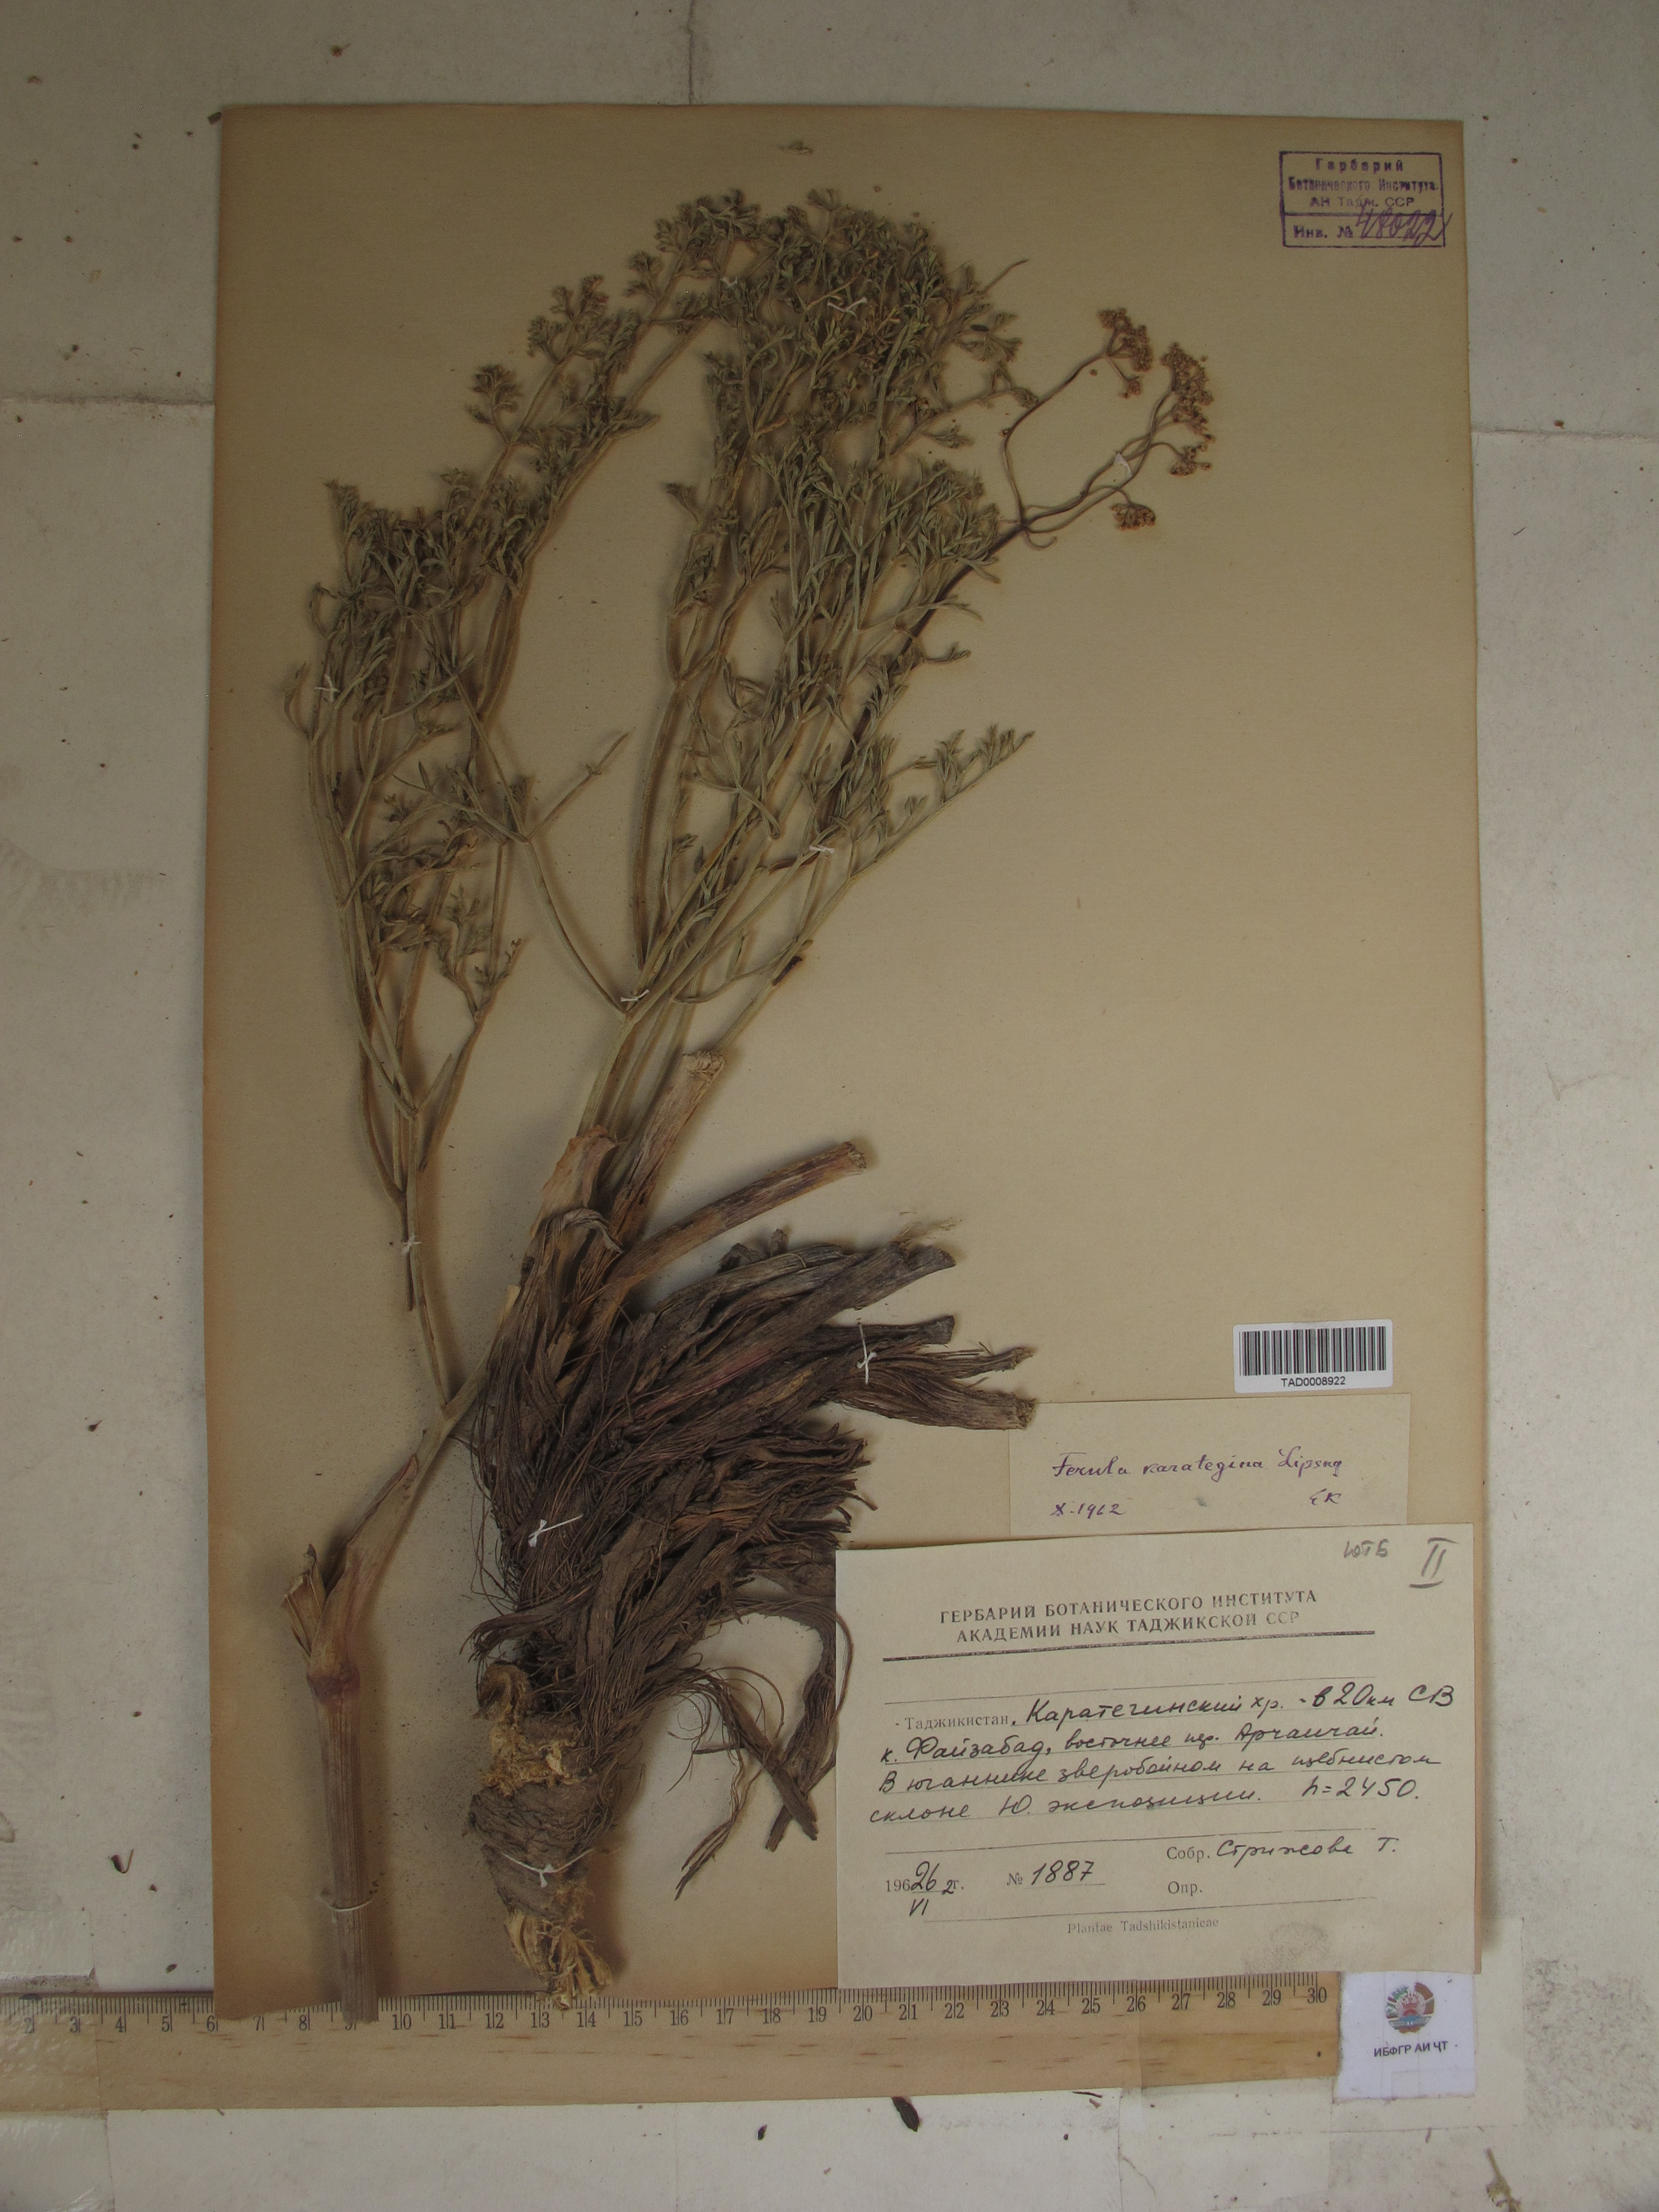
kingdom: Plantae
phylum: Tracheophyta
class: Magnoliopsida
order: Apiales
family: Apiaceae
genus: Ferula
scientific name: Ferula karategina
